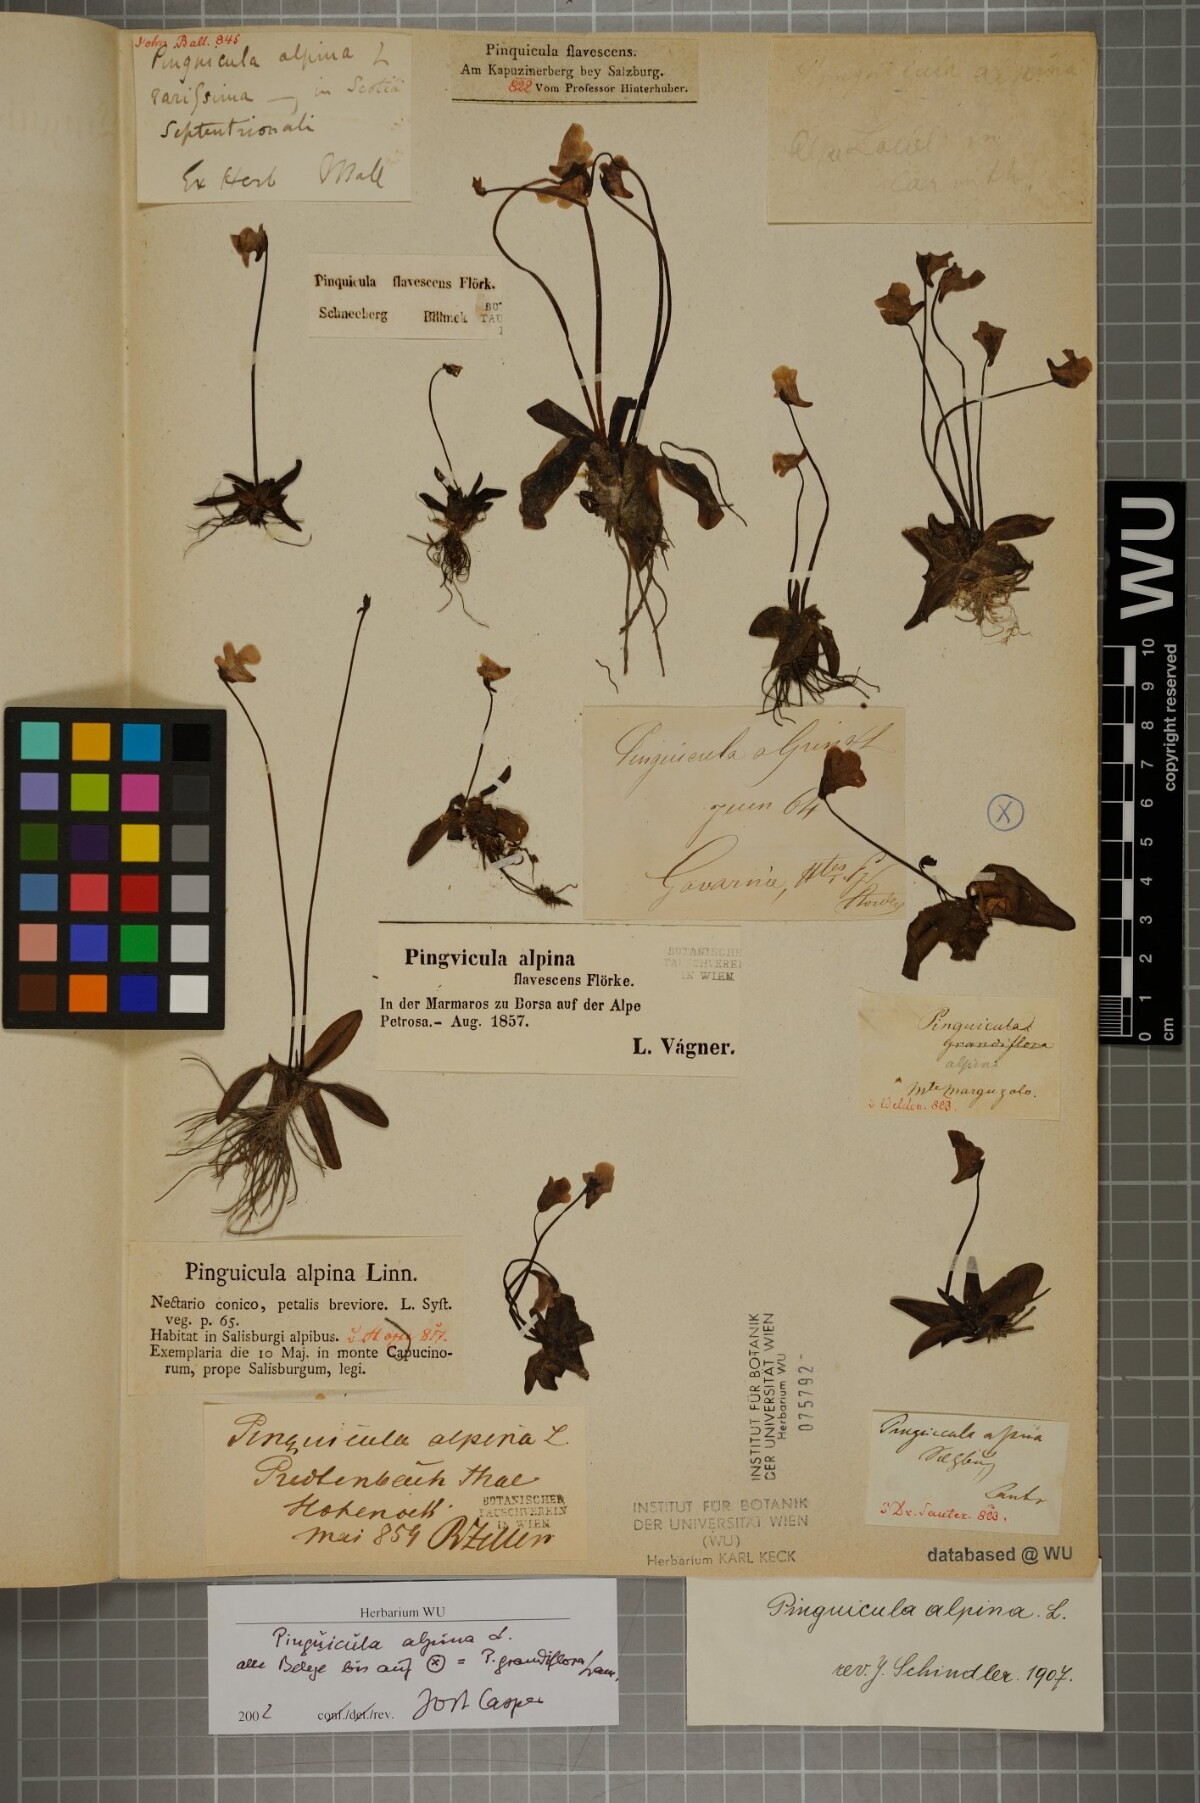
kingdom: Plantae
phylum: Tracheophyta
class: Magnoliopsida
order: Lamiales
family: Lentibulariaceae
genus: Pinguicula
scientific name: Pinguicula alpina
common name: Alpine butterwort
